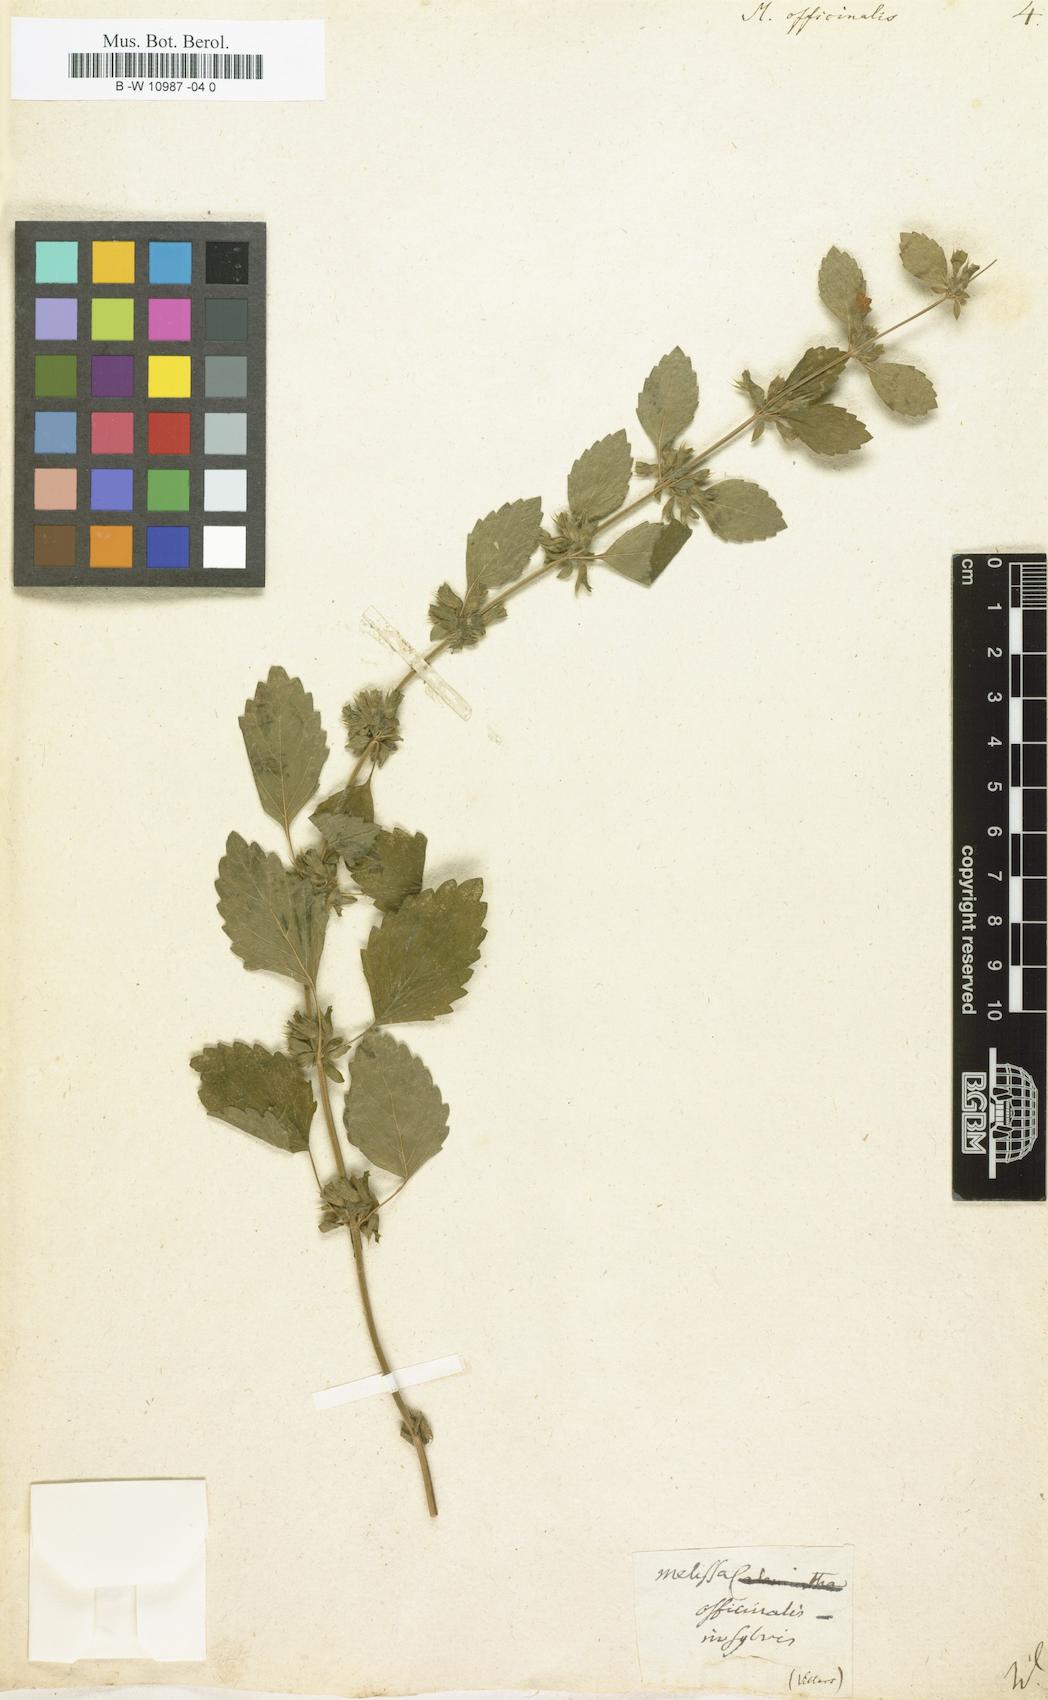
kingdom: Plantae
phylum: Tracheophyta
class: Magnoliopsida
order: Lamiales
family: Lamiaceae
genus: Melissa
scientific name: Melissa officinalis
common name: Balm
